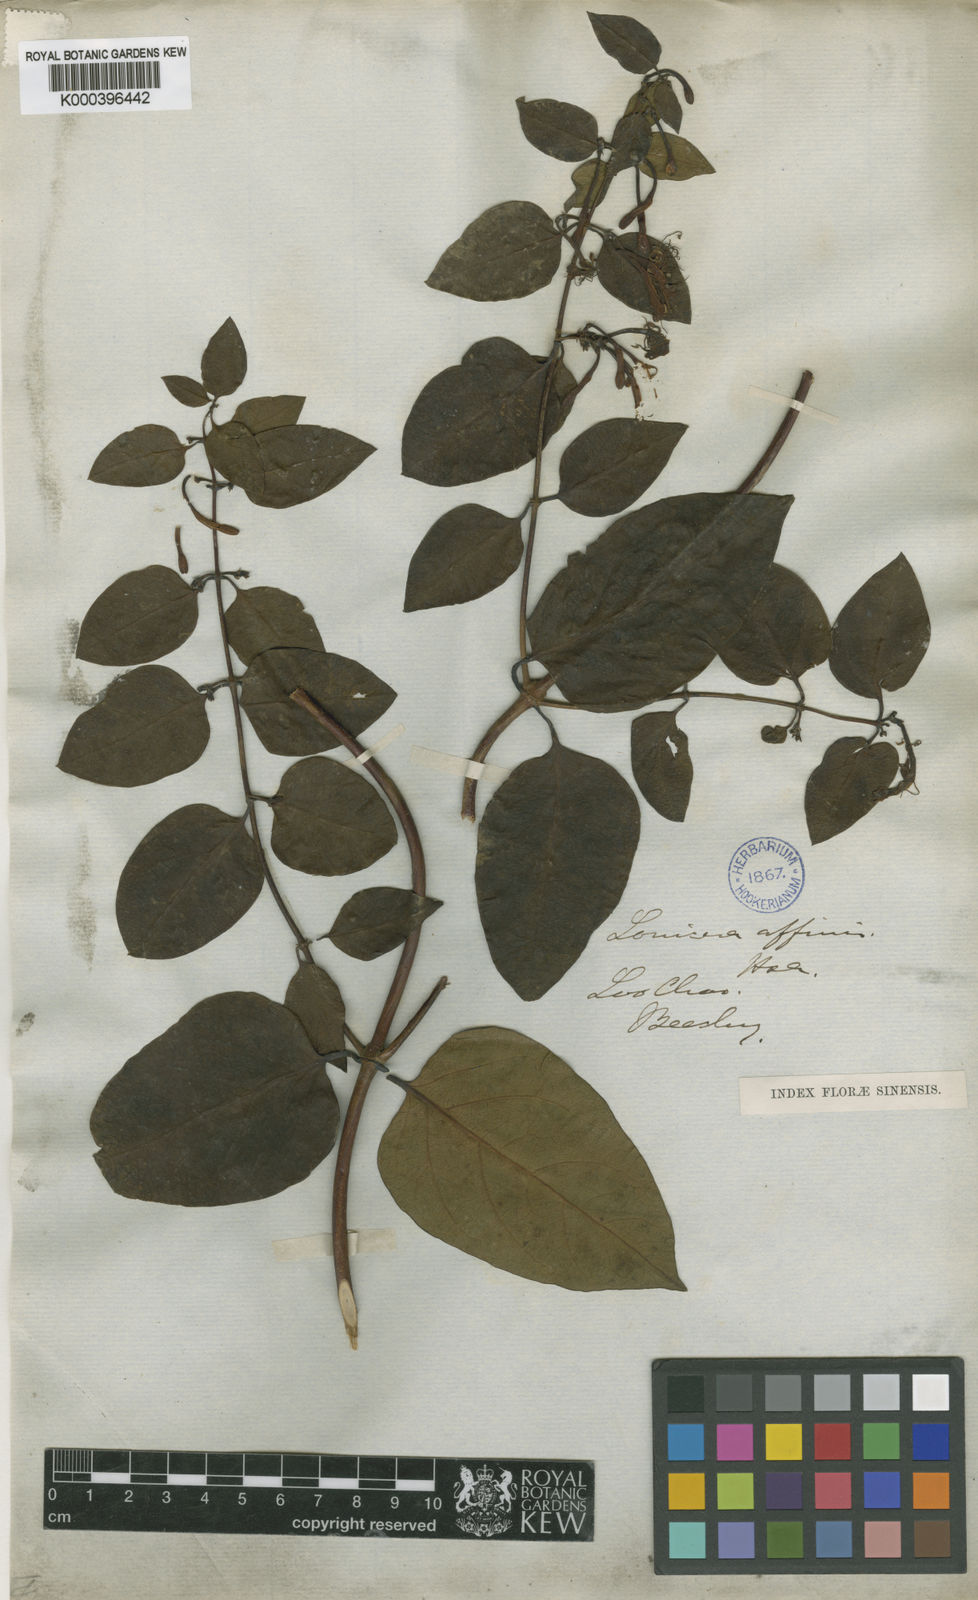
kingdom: Plantae
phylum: Tracheophyta
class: Magnoliopsida
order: Dipsacales
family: Caprifoliaceae
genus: Lonicera
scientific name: Lonicera affinis
